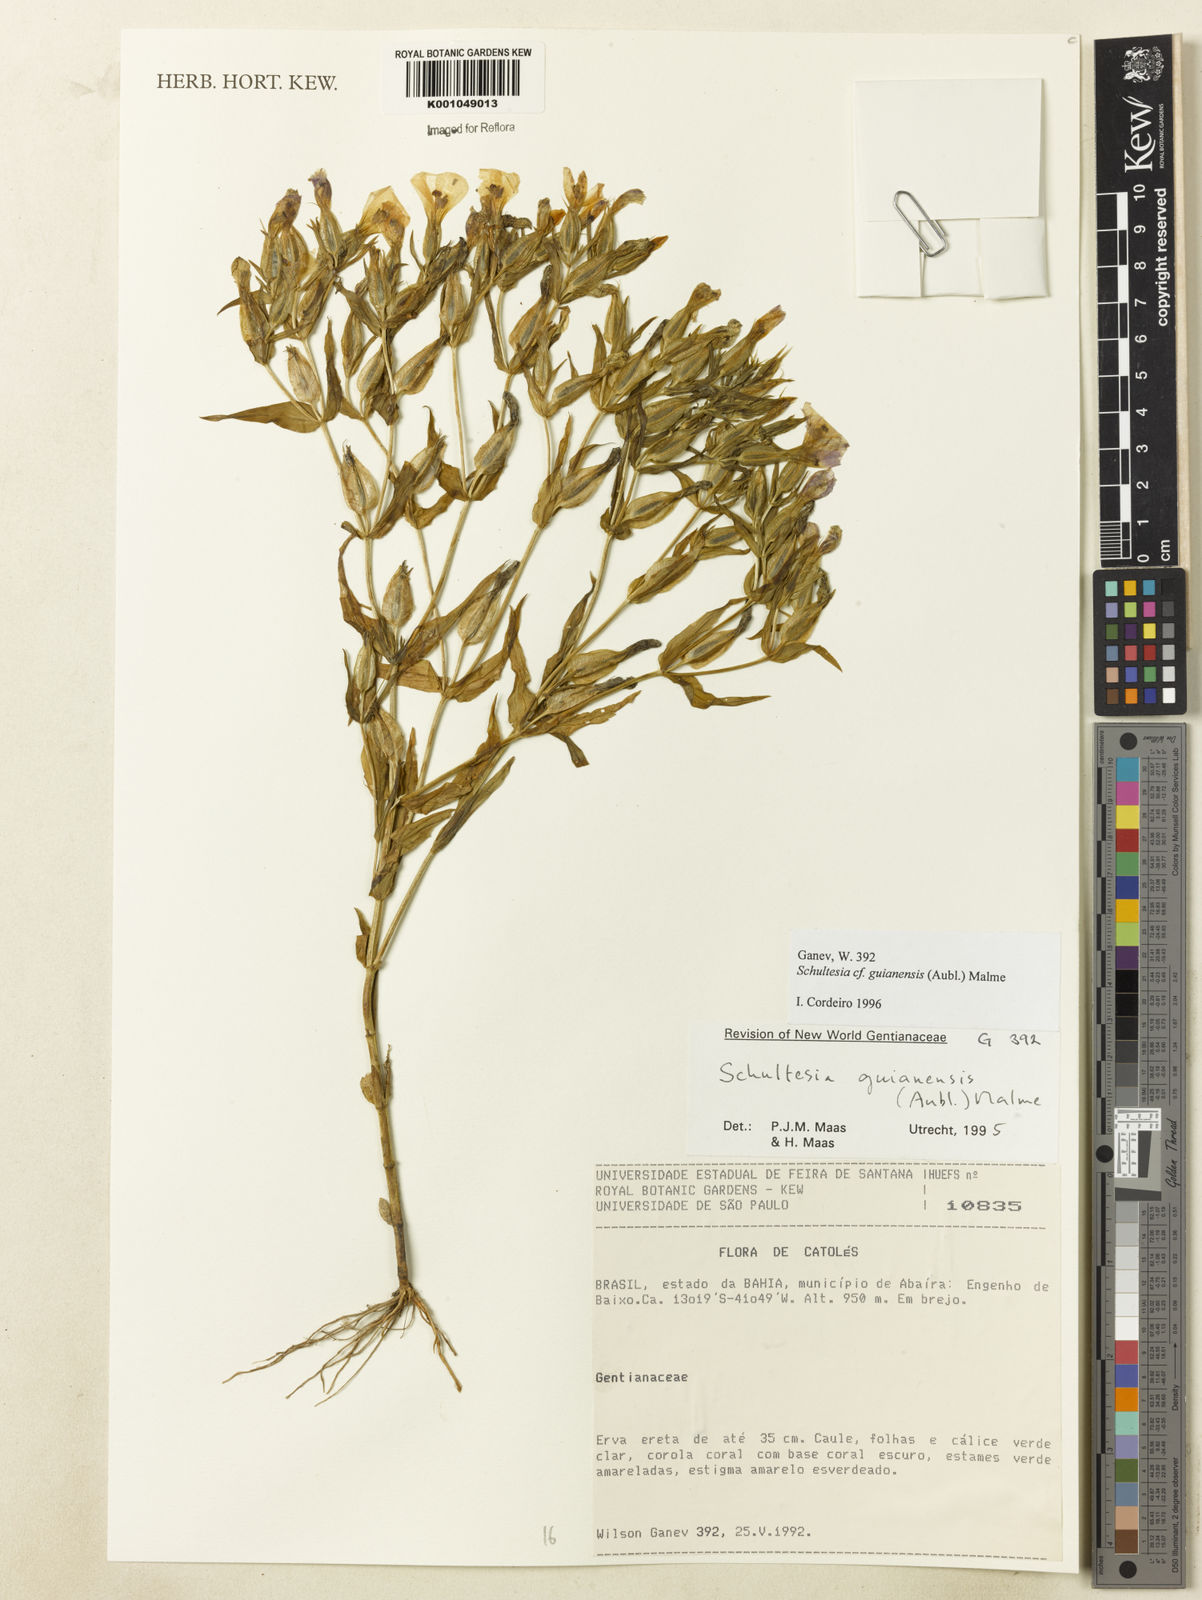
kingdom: Plantae
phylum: Tracheophyta
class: Magnoliopsida
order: Gentianales
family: Gentianaceae
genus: Schultesia
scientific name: Schultesia guianensis
